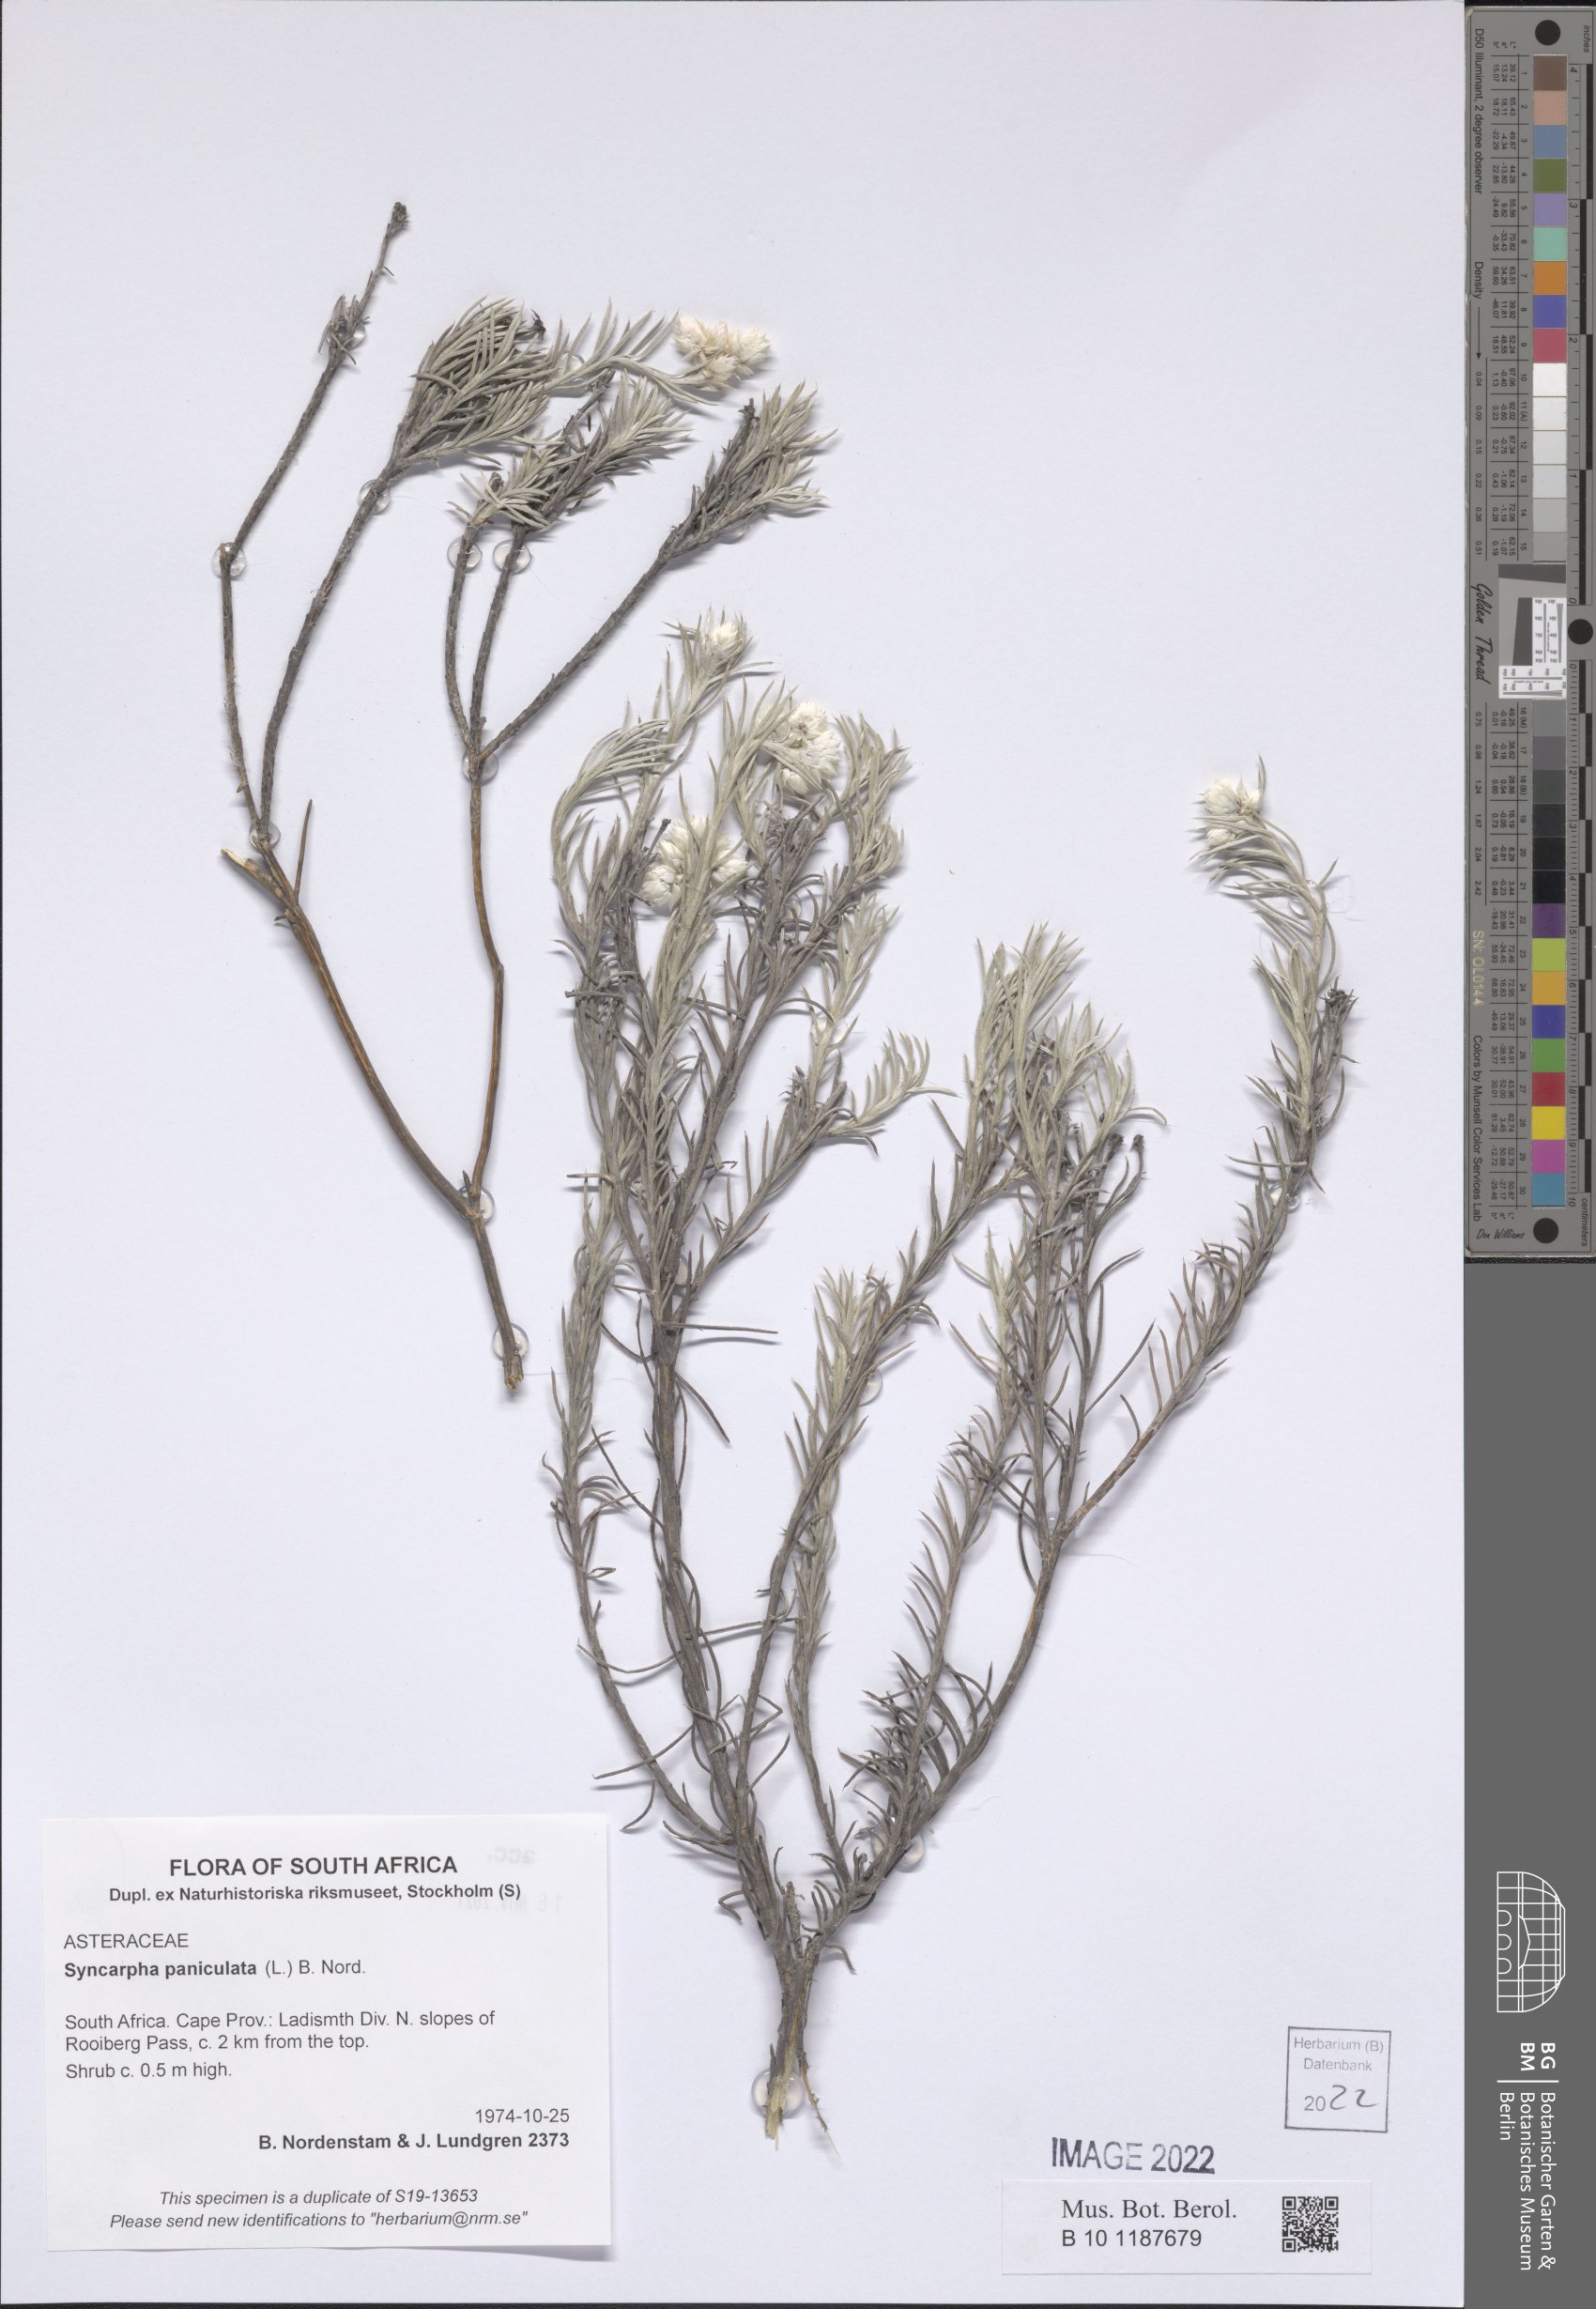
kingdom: Plantae
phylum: Tracheophyta
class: Magnoliopsida
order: Asterales
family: Asteraceae
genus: Achyranthemum
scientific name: Achyranthemum paniculatum
